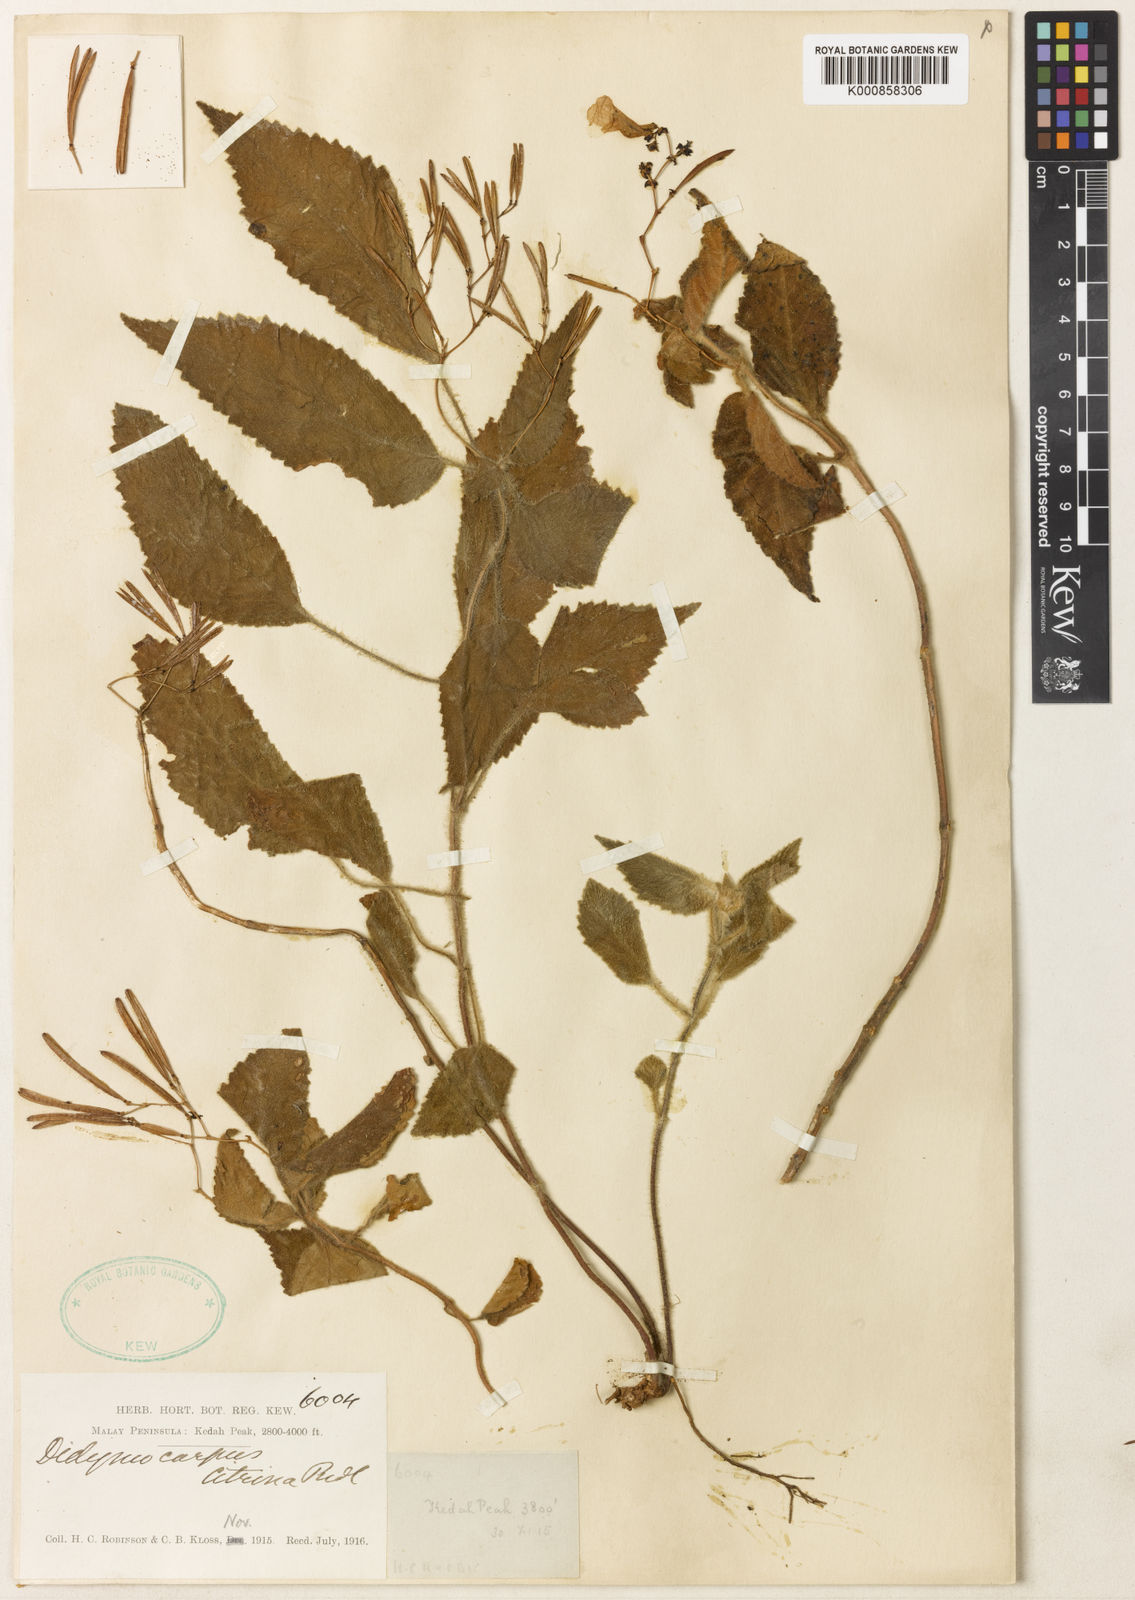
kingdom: Plantae
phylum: Tracheophyta
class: Magnoliopsida
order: Lamiales
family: Gesneriaceae
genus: Didymocarpus
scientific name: Didymocarpus citrinus
